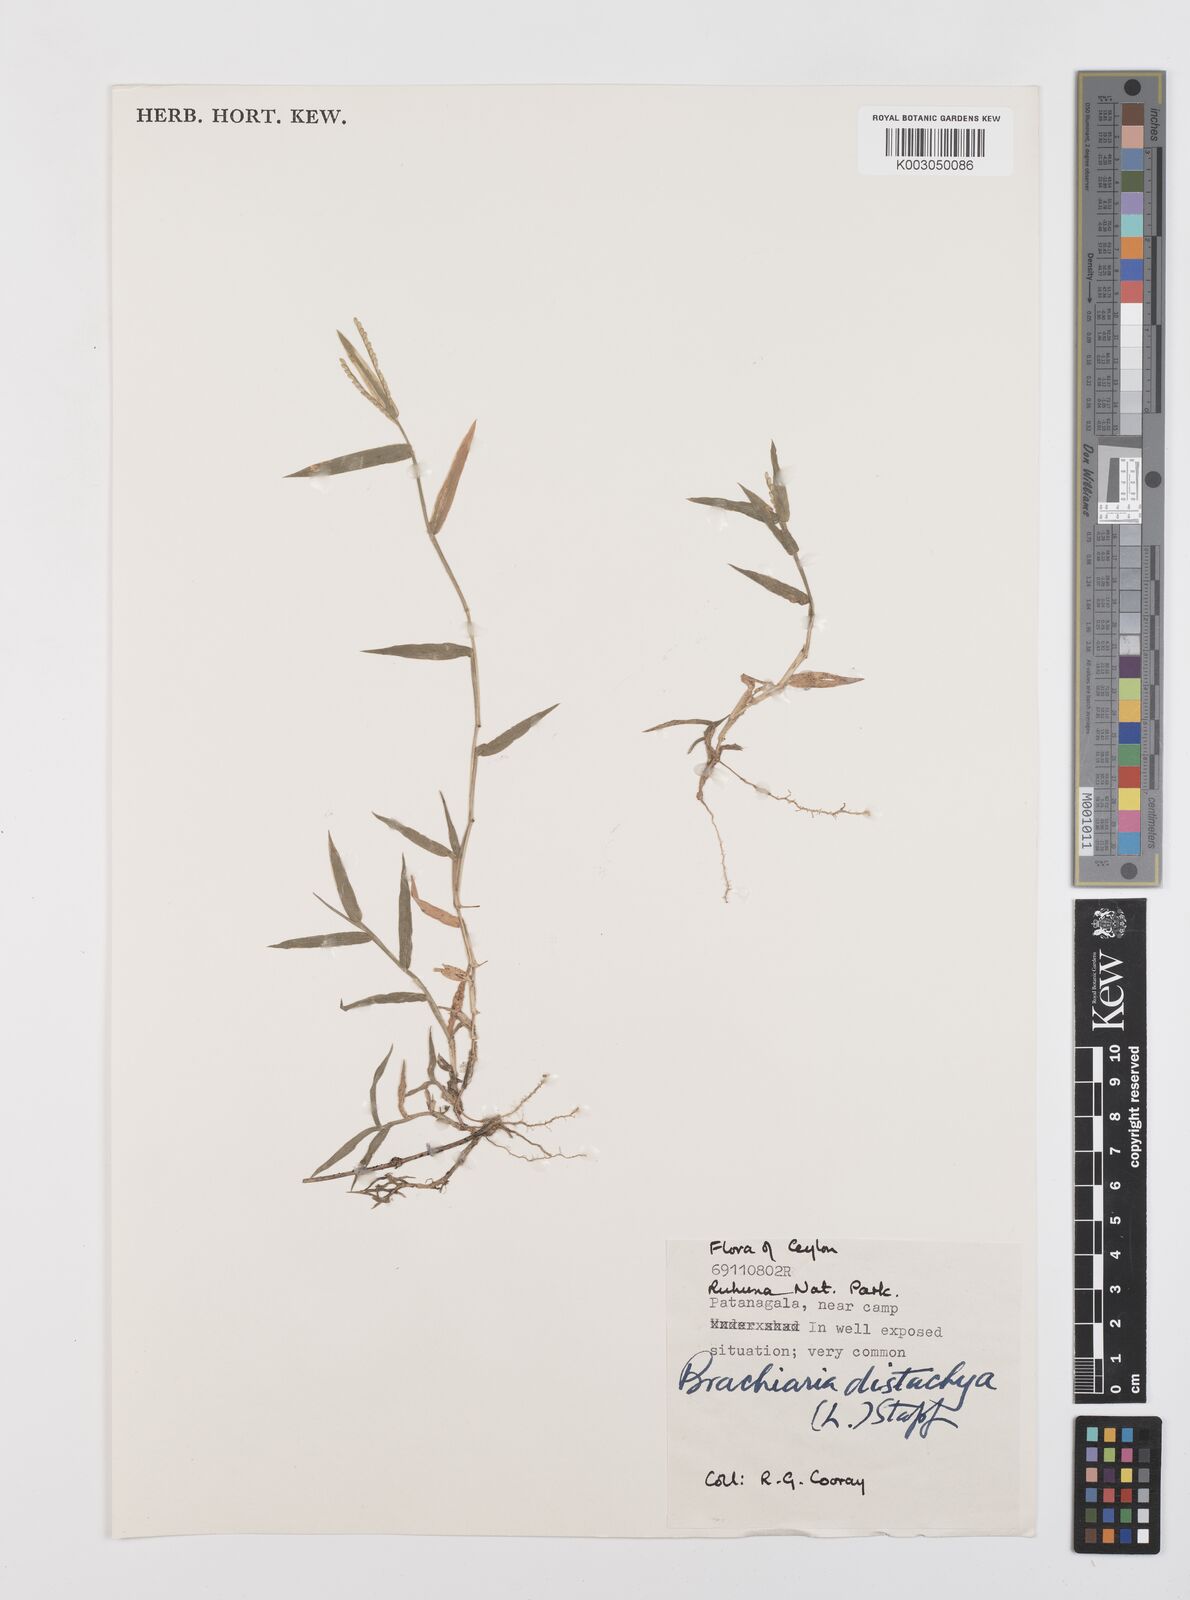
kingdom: Plantae
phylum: Tracheophyta
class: Liliopsida
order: Poales
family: Poaceae
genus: Urochloa
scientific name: Urochloa distachyos
